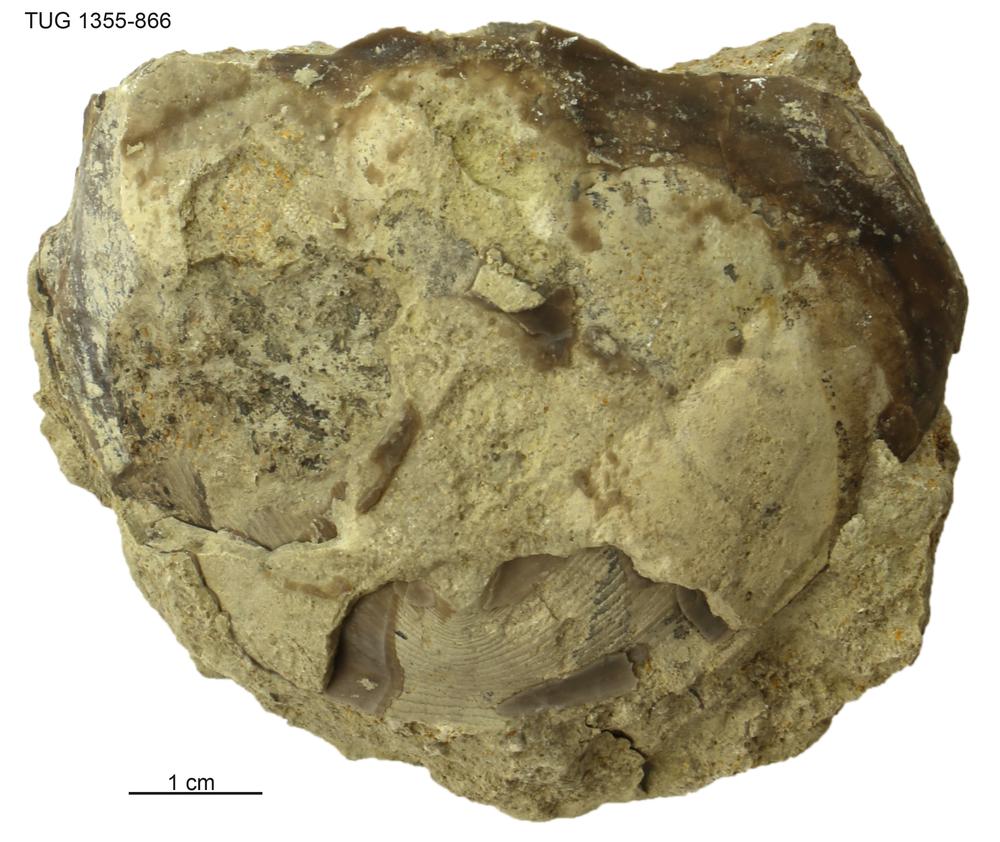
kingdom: Animalia
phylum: Arthropoda
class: Trilobita
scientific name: Trilobita
